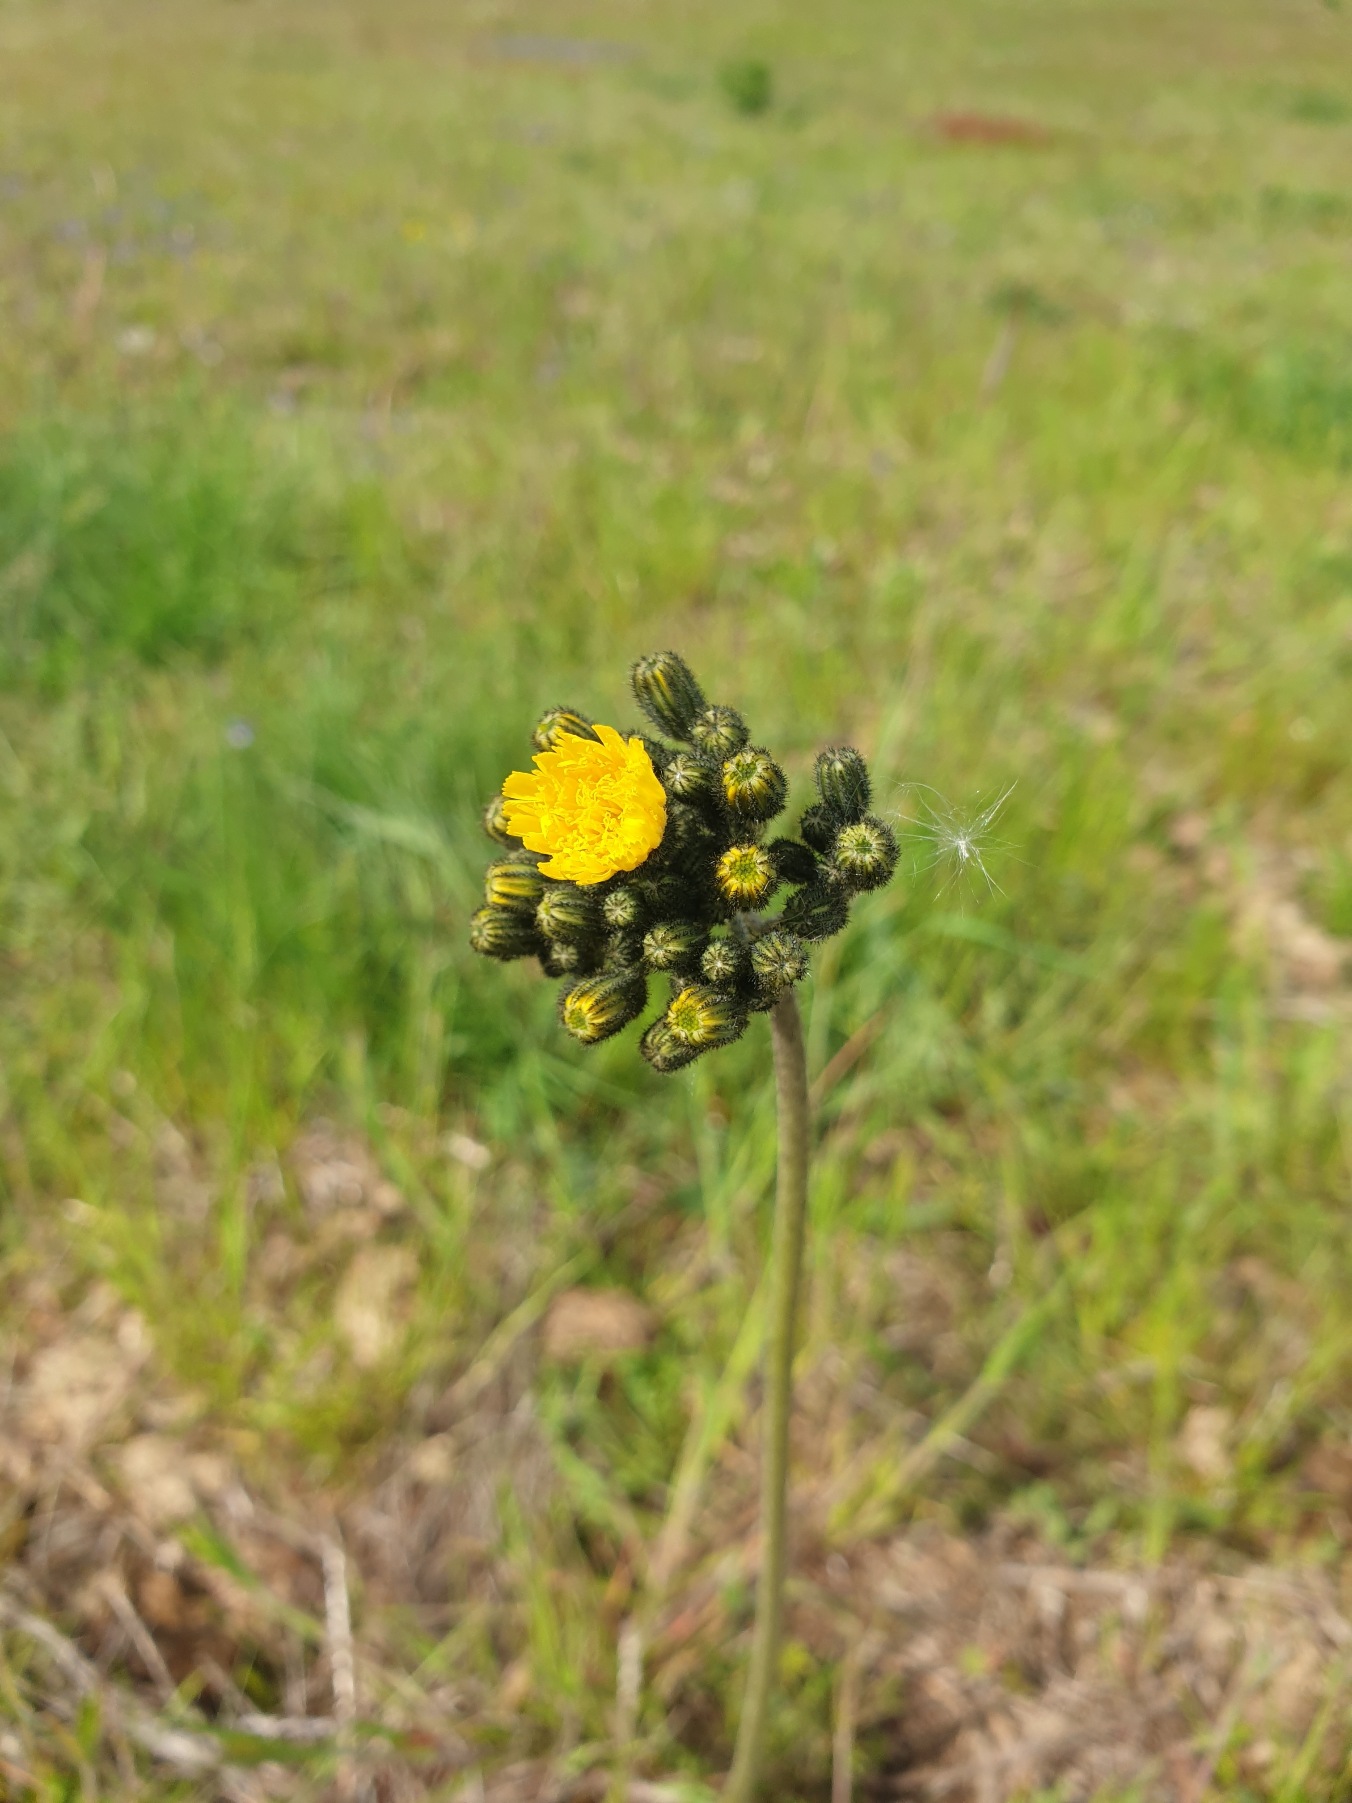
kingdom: Plantae
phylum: Tracheophyta
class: Magnoliopsida
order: Asterales
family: Asteraceae
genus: Pilosella
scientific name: Pilosella cymosa
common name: Blød kvast-høgeurt
